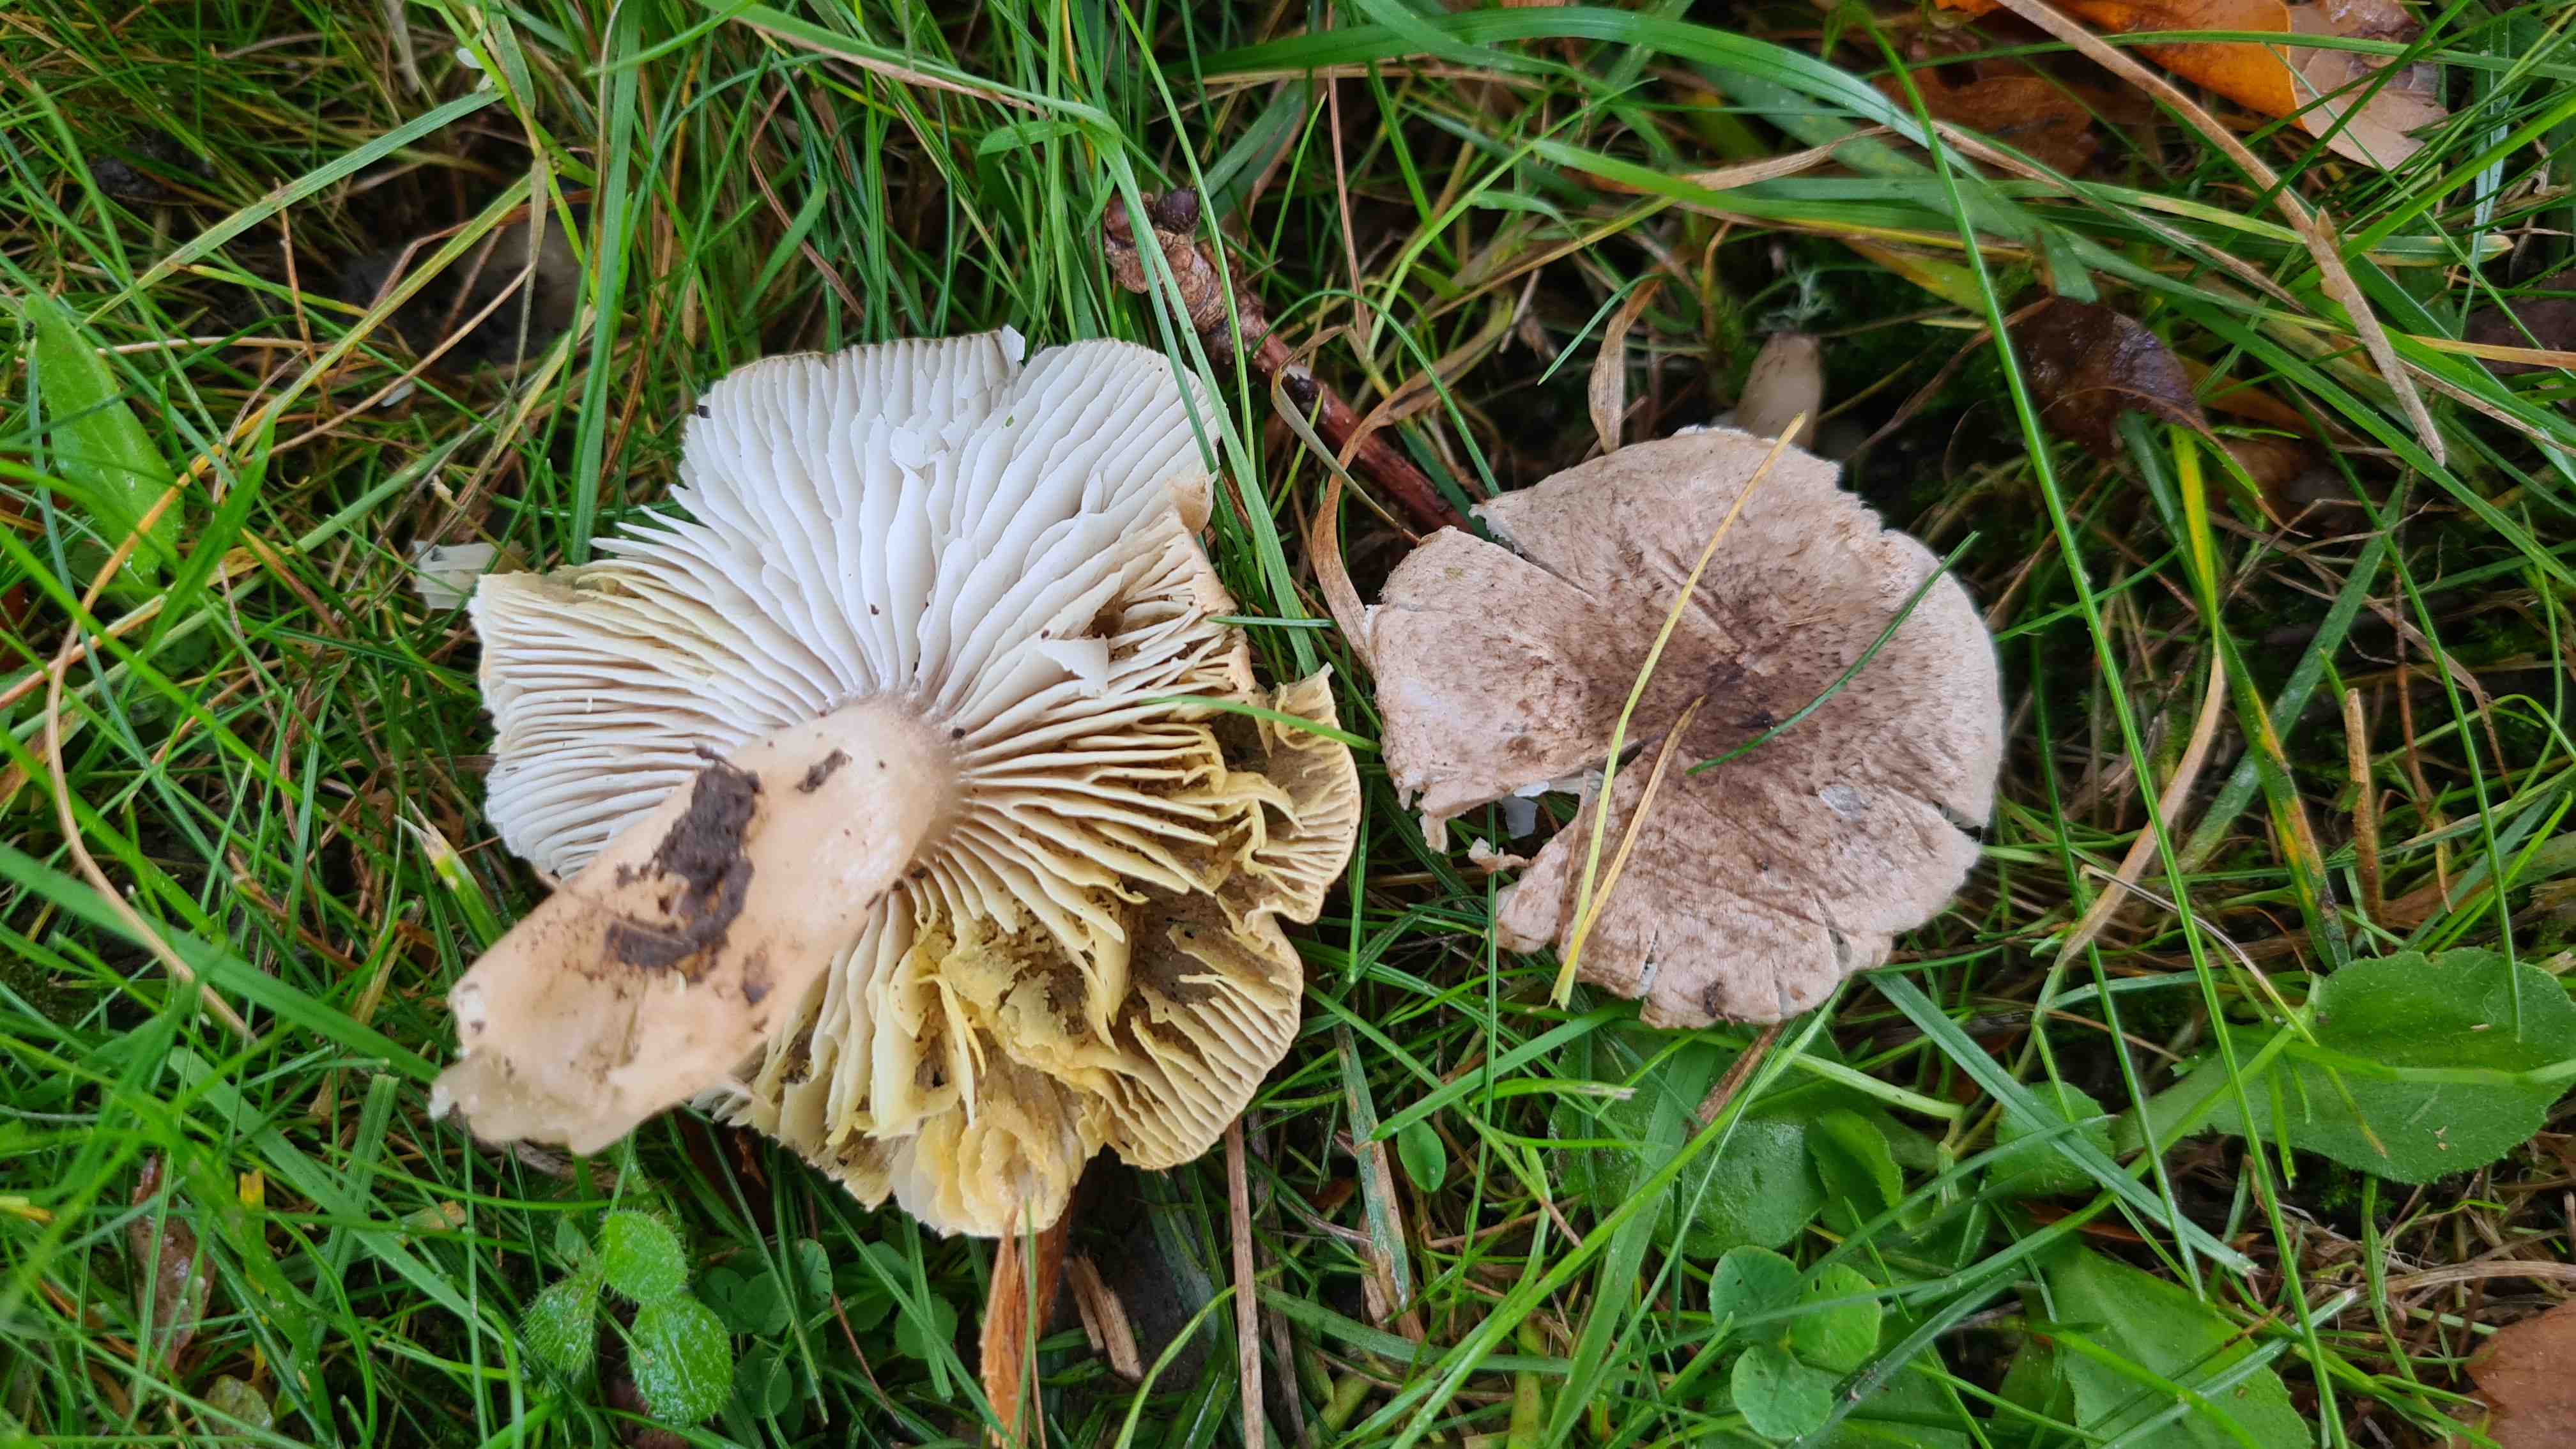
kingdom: Fungi
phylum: Basidiomycota
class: Agaricomycetes
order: Agaricales
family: Tricholomataceae
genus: Tricholoma
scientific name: Tricholoma scalpturatum
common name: gulplettet ridderhat
